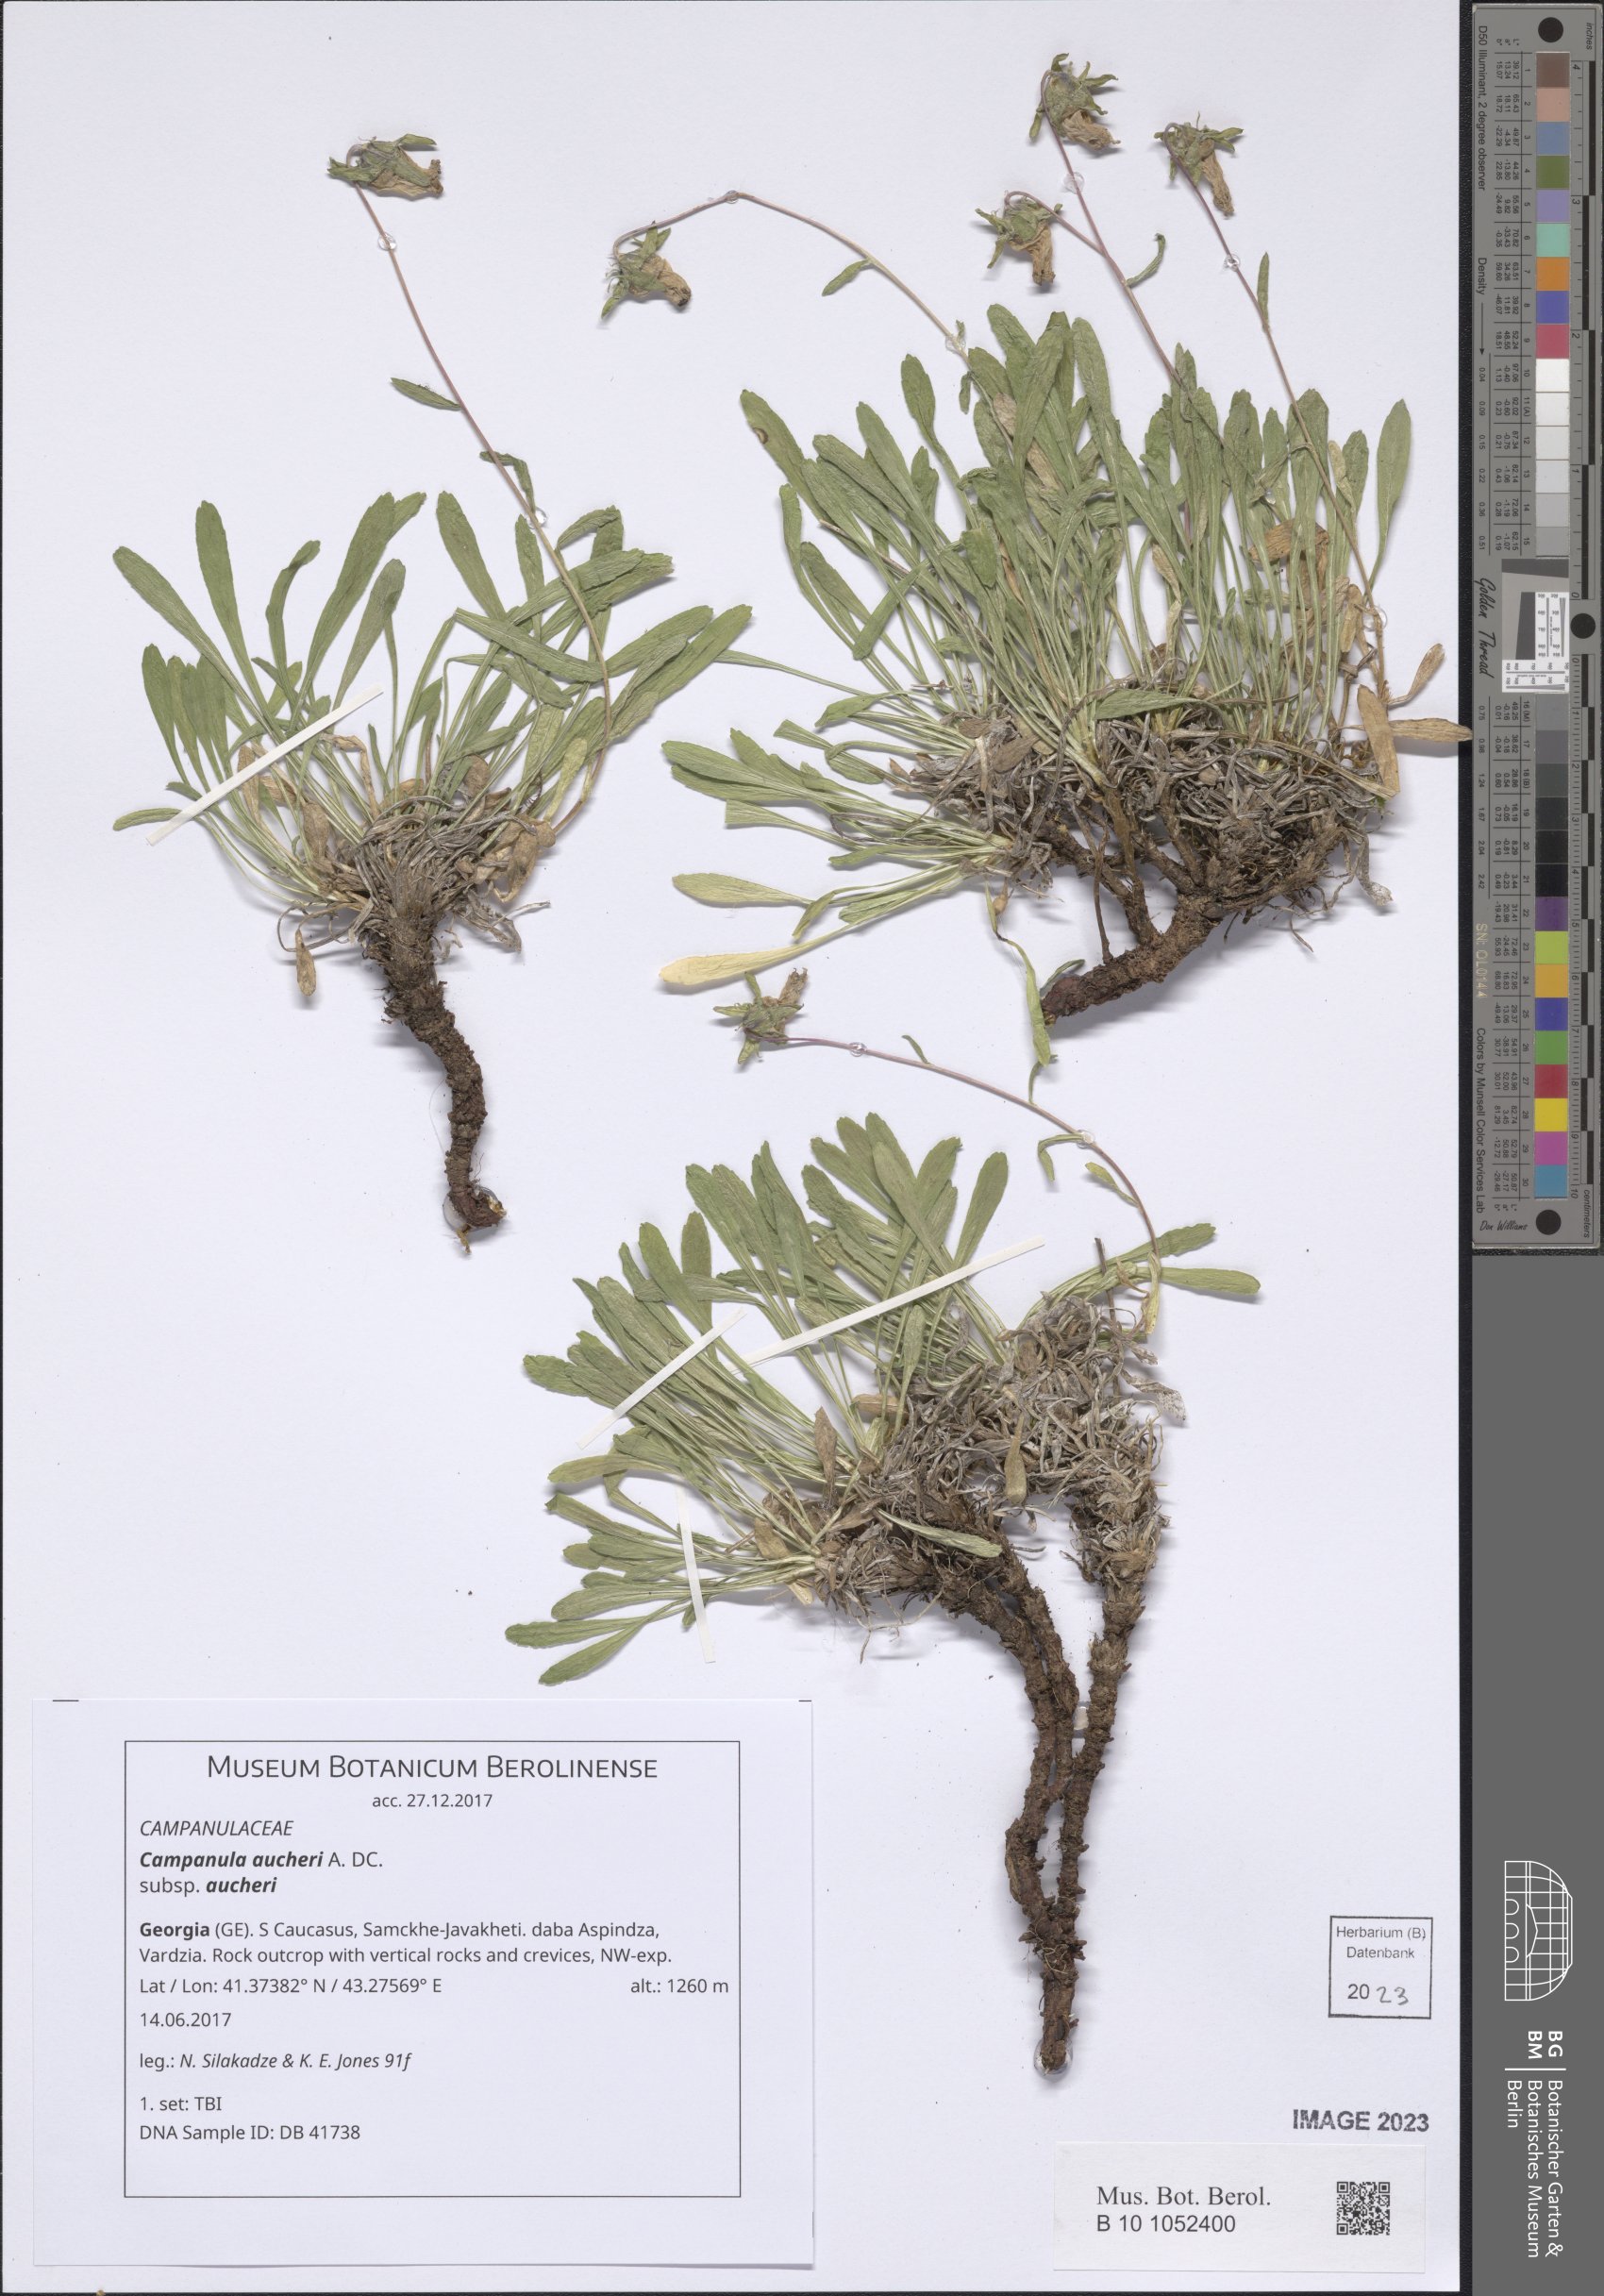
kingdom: Plantae
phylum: Tracheophyta
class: Magnoliopsida
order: Asterales
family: Campanulaceae
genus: Campanula
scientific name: Campanula saxifraga
